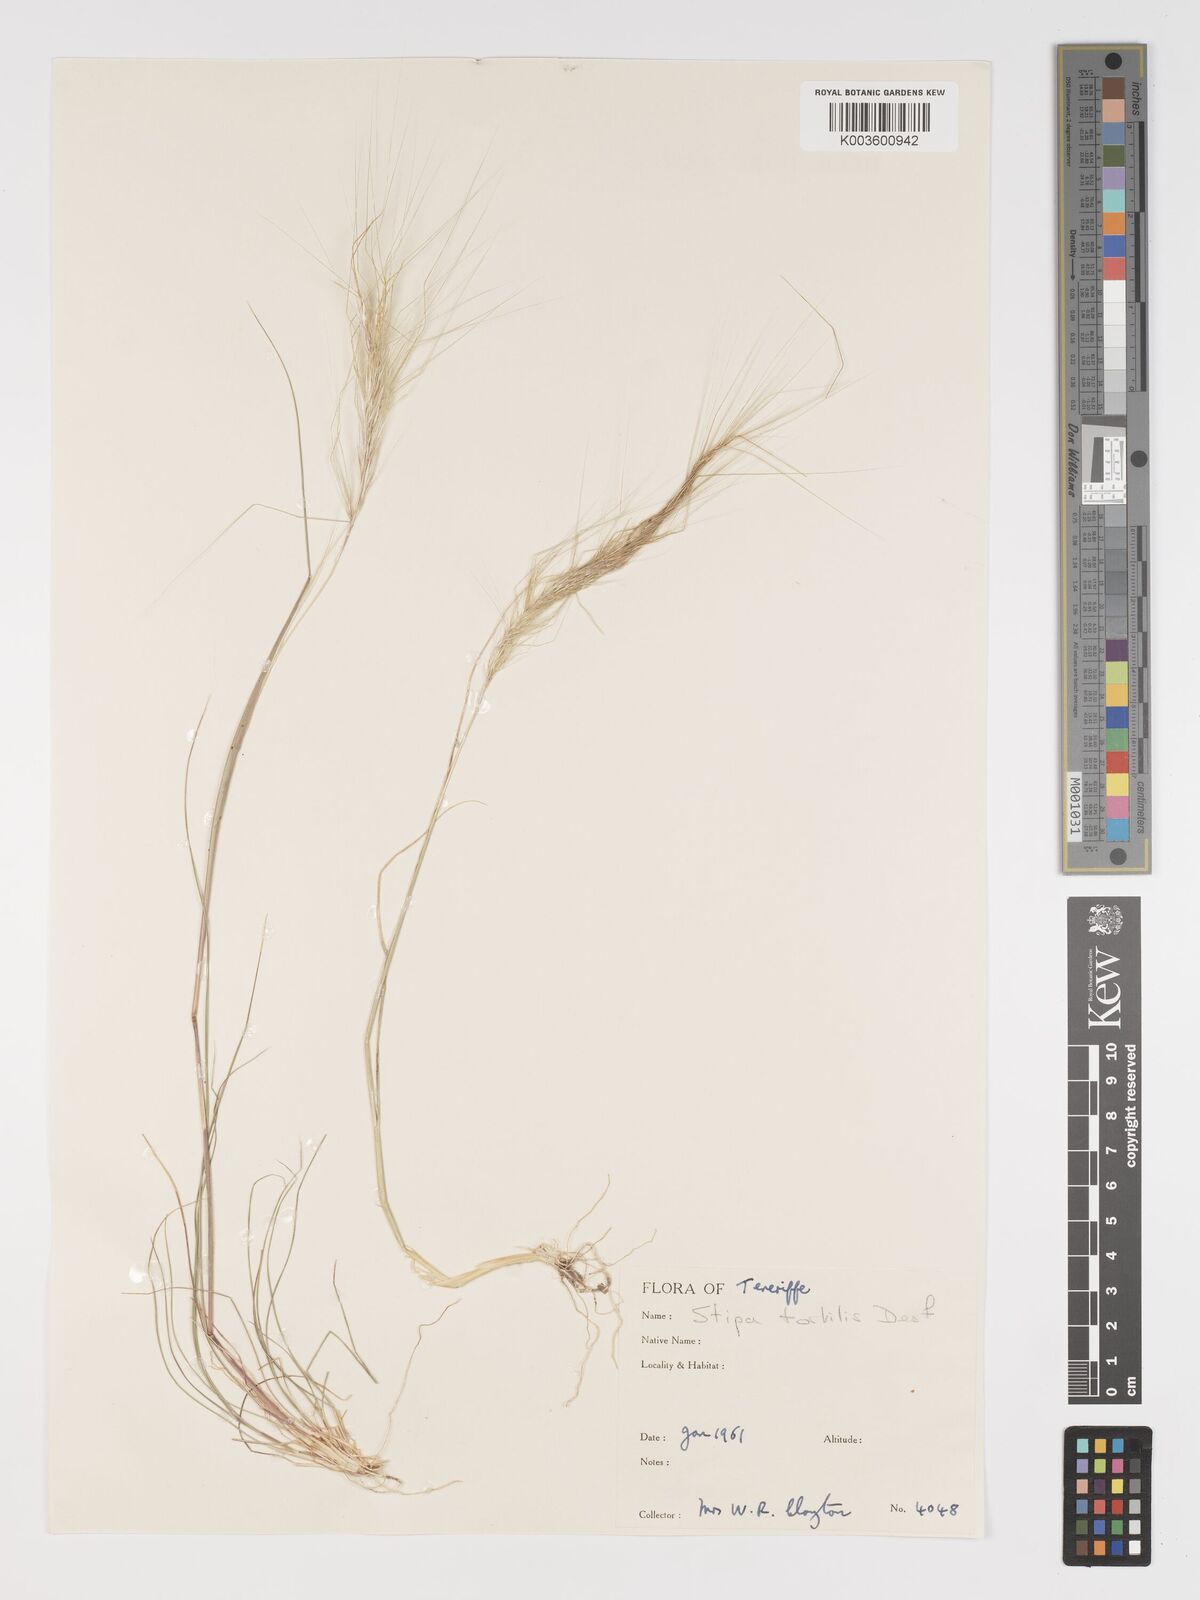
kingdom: Plantae
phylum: Tracheophyta
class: Liliopsida
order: Poales
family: Poaceae
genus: Stipa
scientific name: Stipa dregeana
